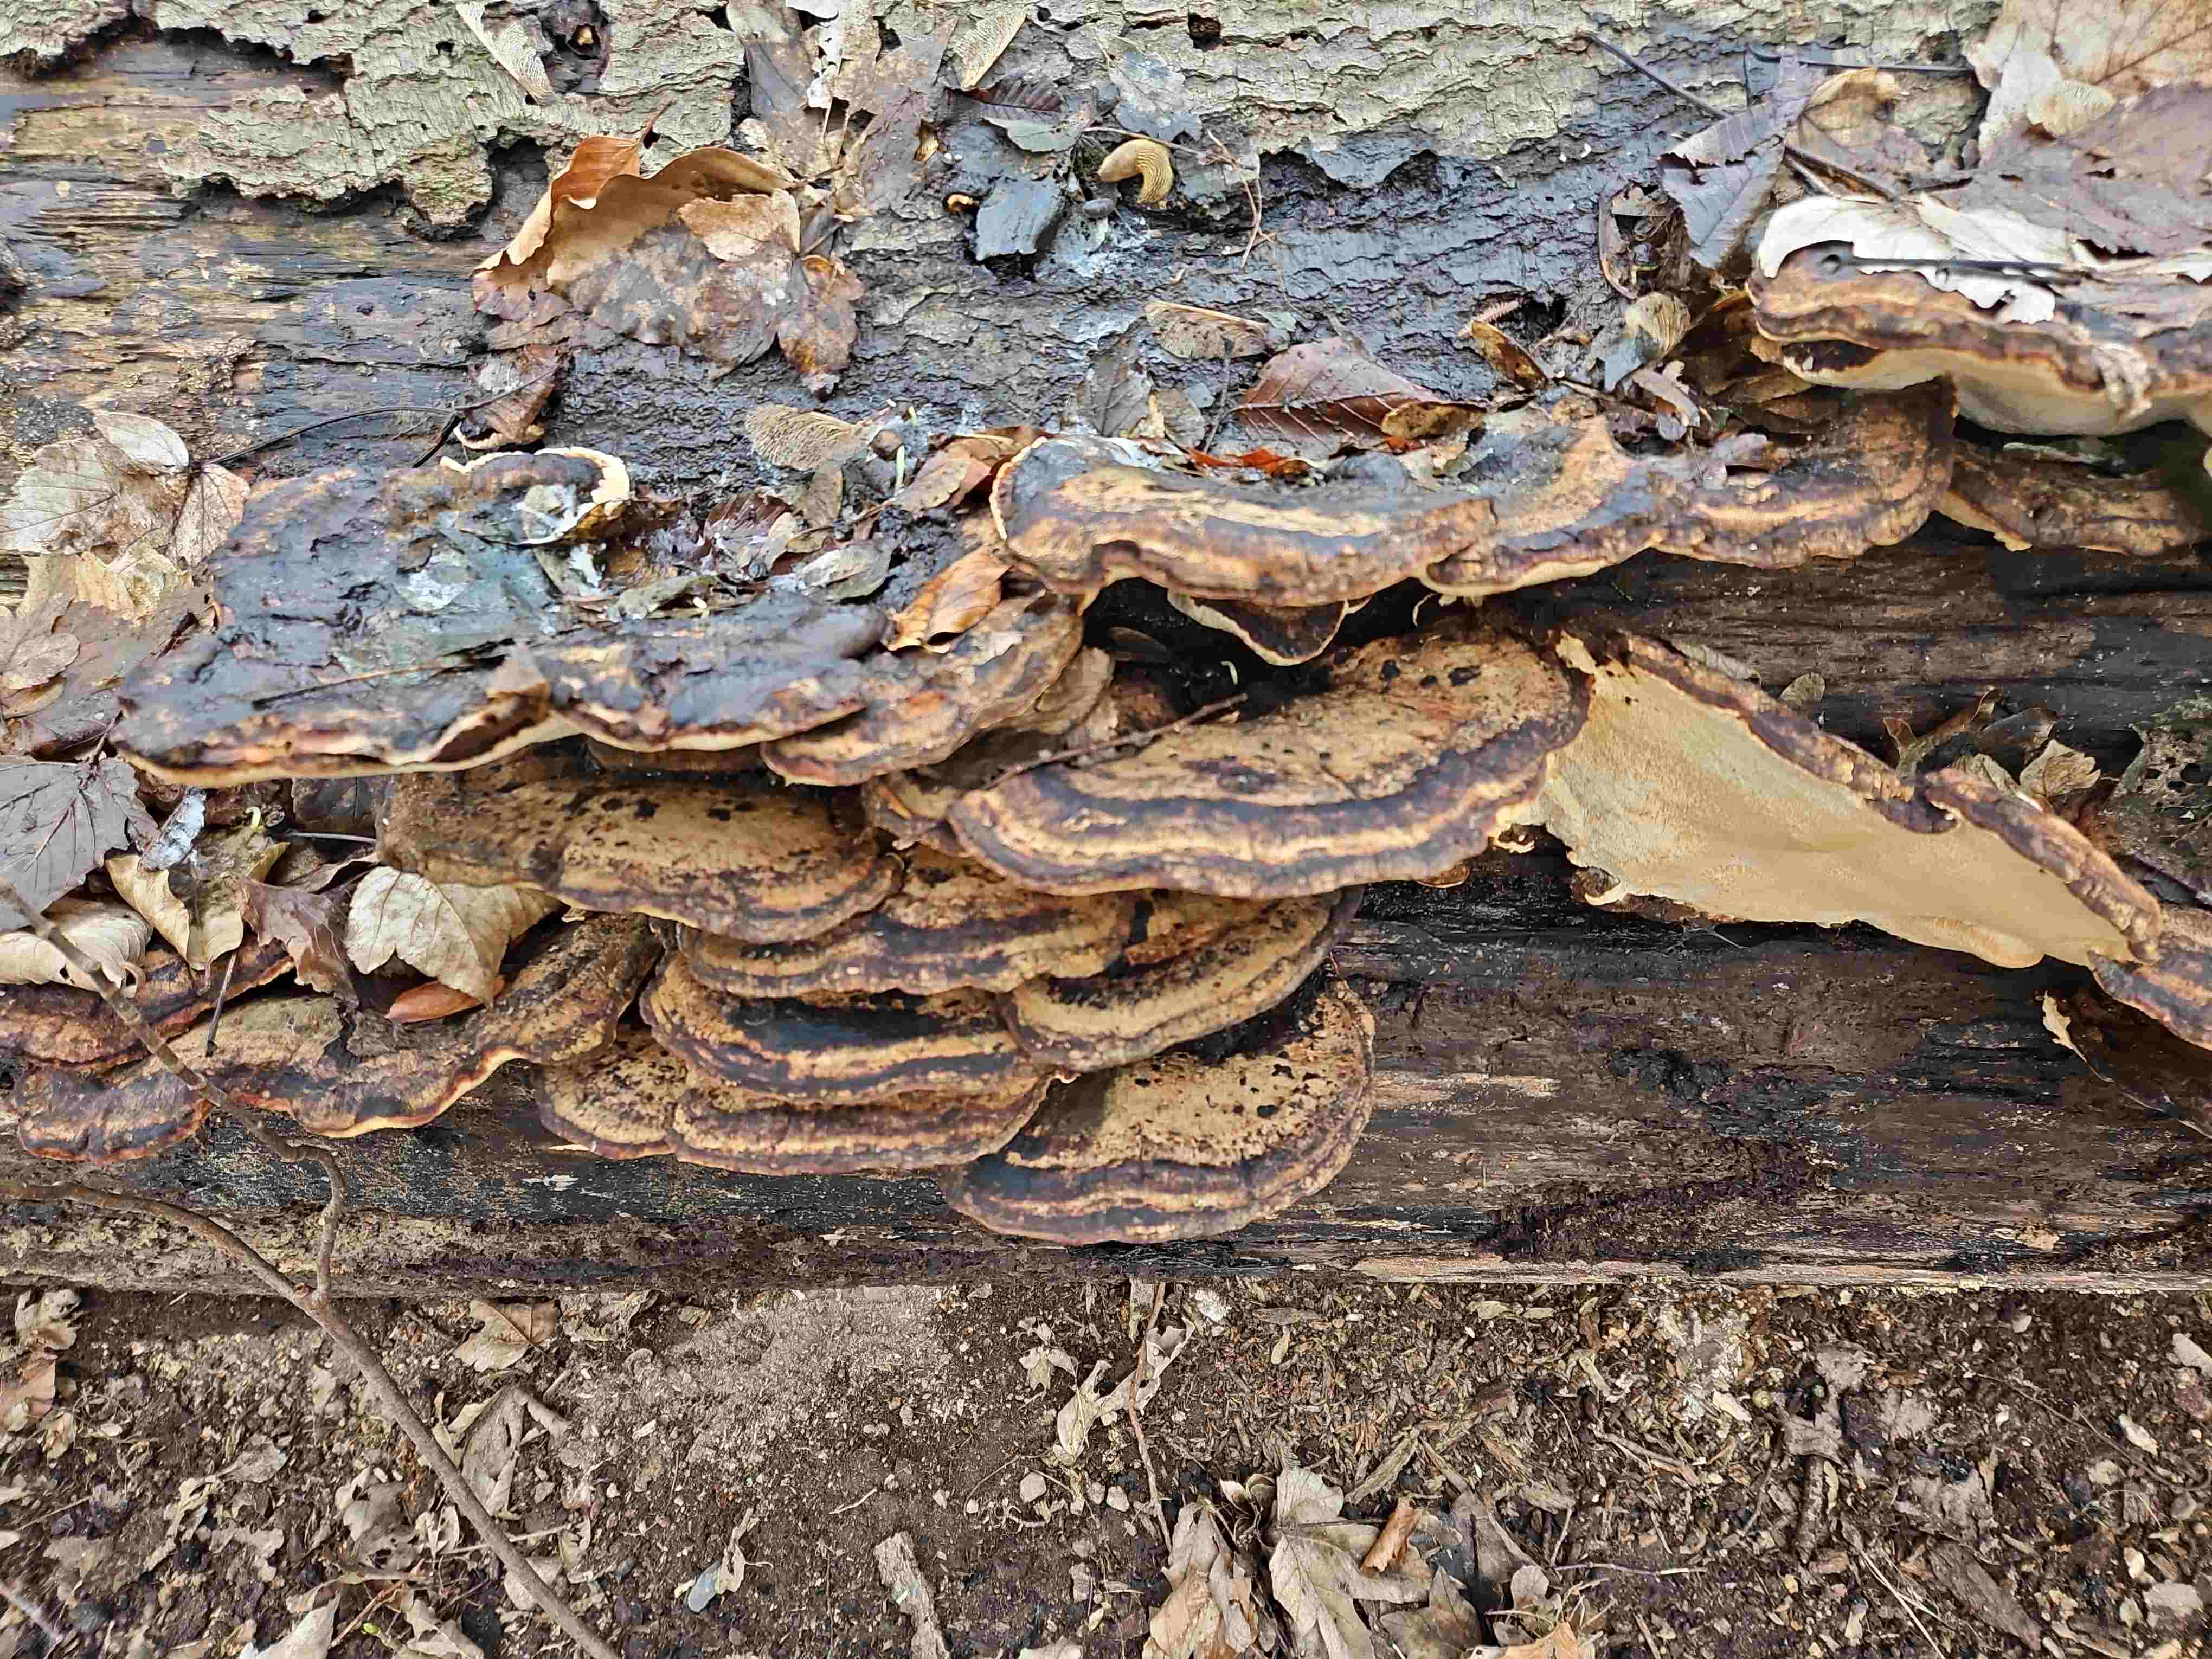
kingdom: Fungi
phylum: Basidiomycota
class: Agaricomycetes
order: Polyporales
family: Ischnodermataceae
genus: Ischnoderma
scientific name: Ischnoderma resinosum
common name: løv-tjæreporesvamp
